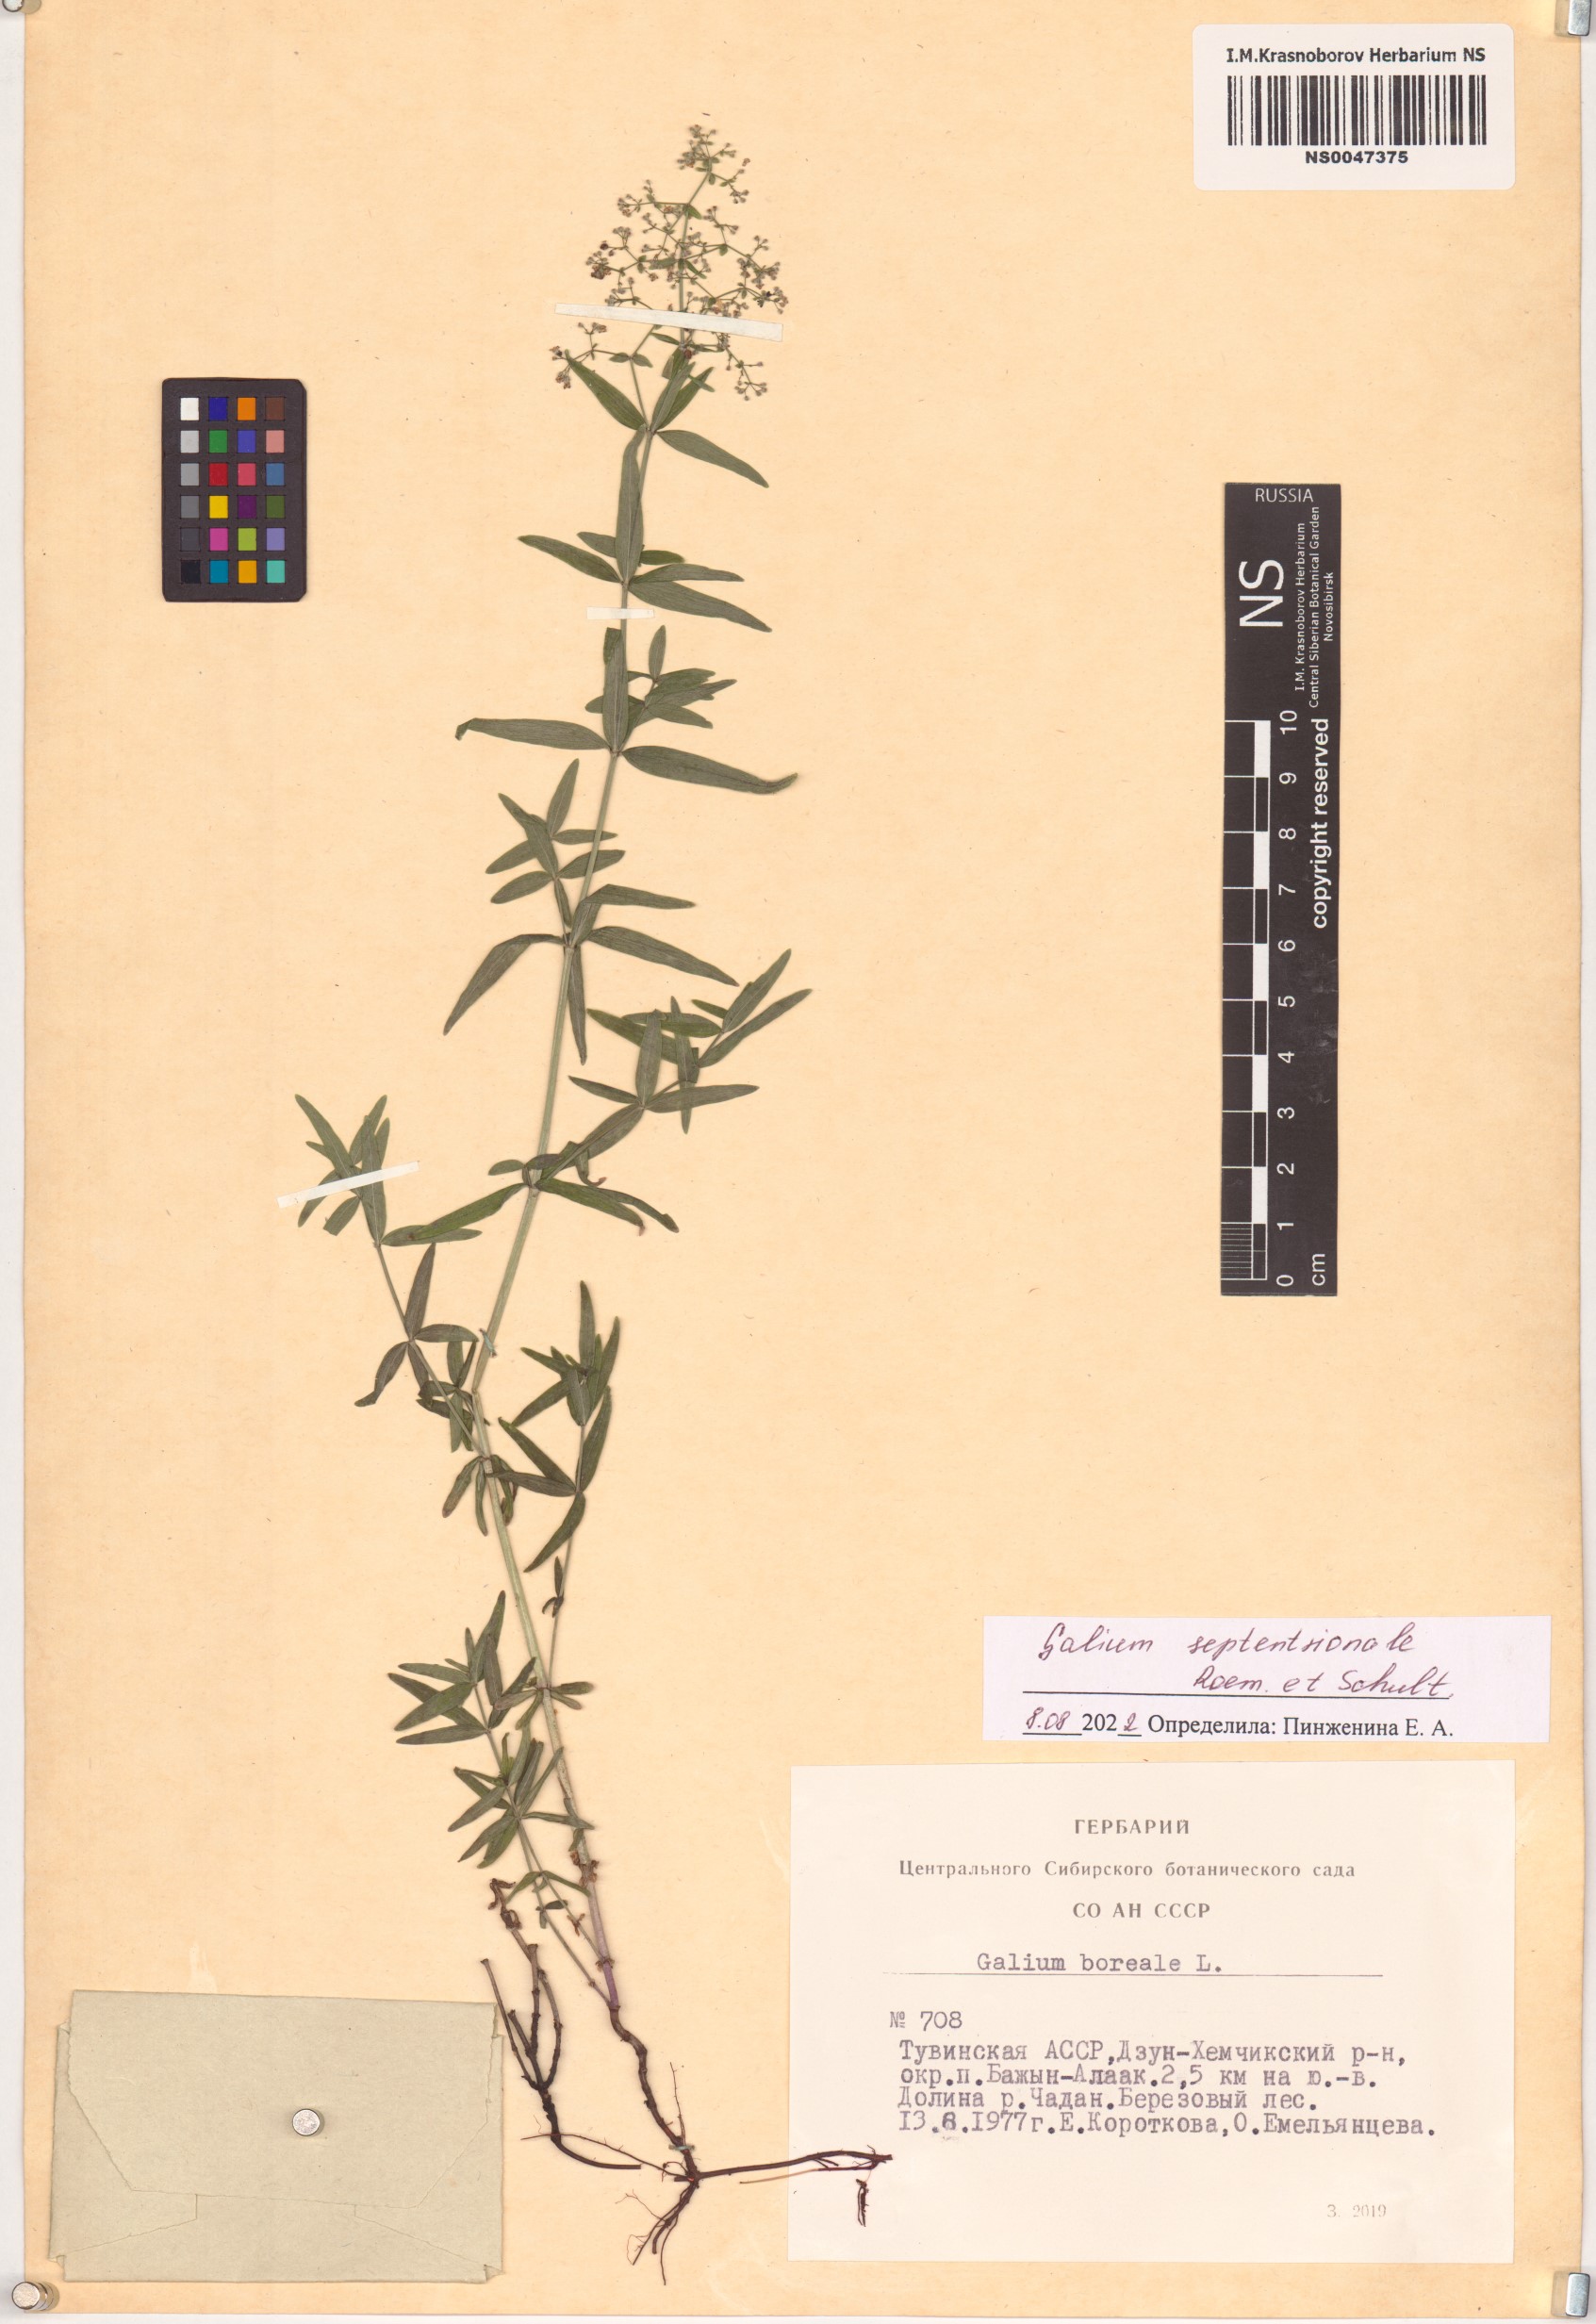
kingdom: Plantae
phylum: Tracheophyta
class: Magnoliopsida
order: Gentianales
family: Rubiaceae
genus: Galium
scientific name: Galium boreale
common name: Northern bedstraw
